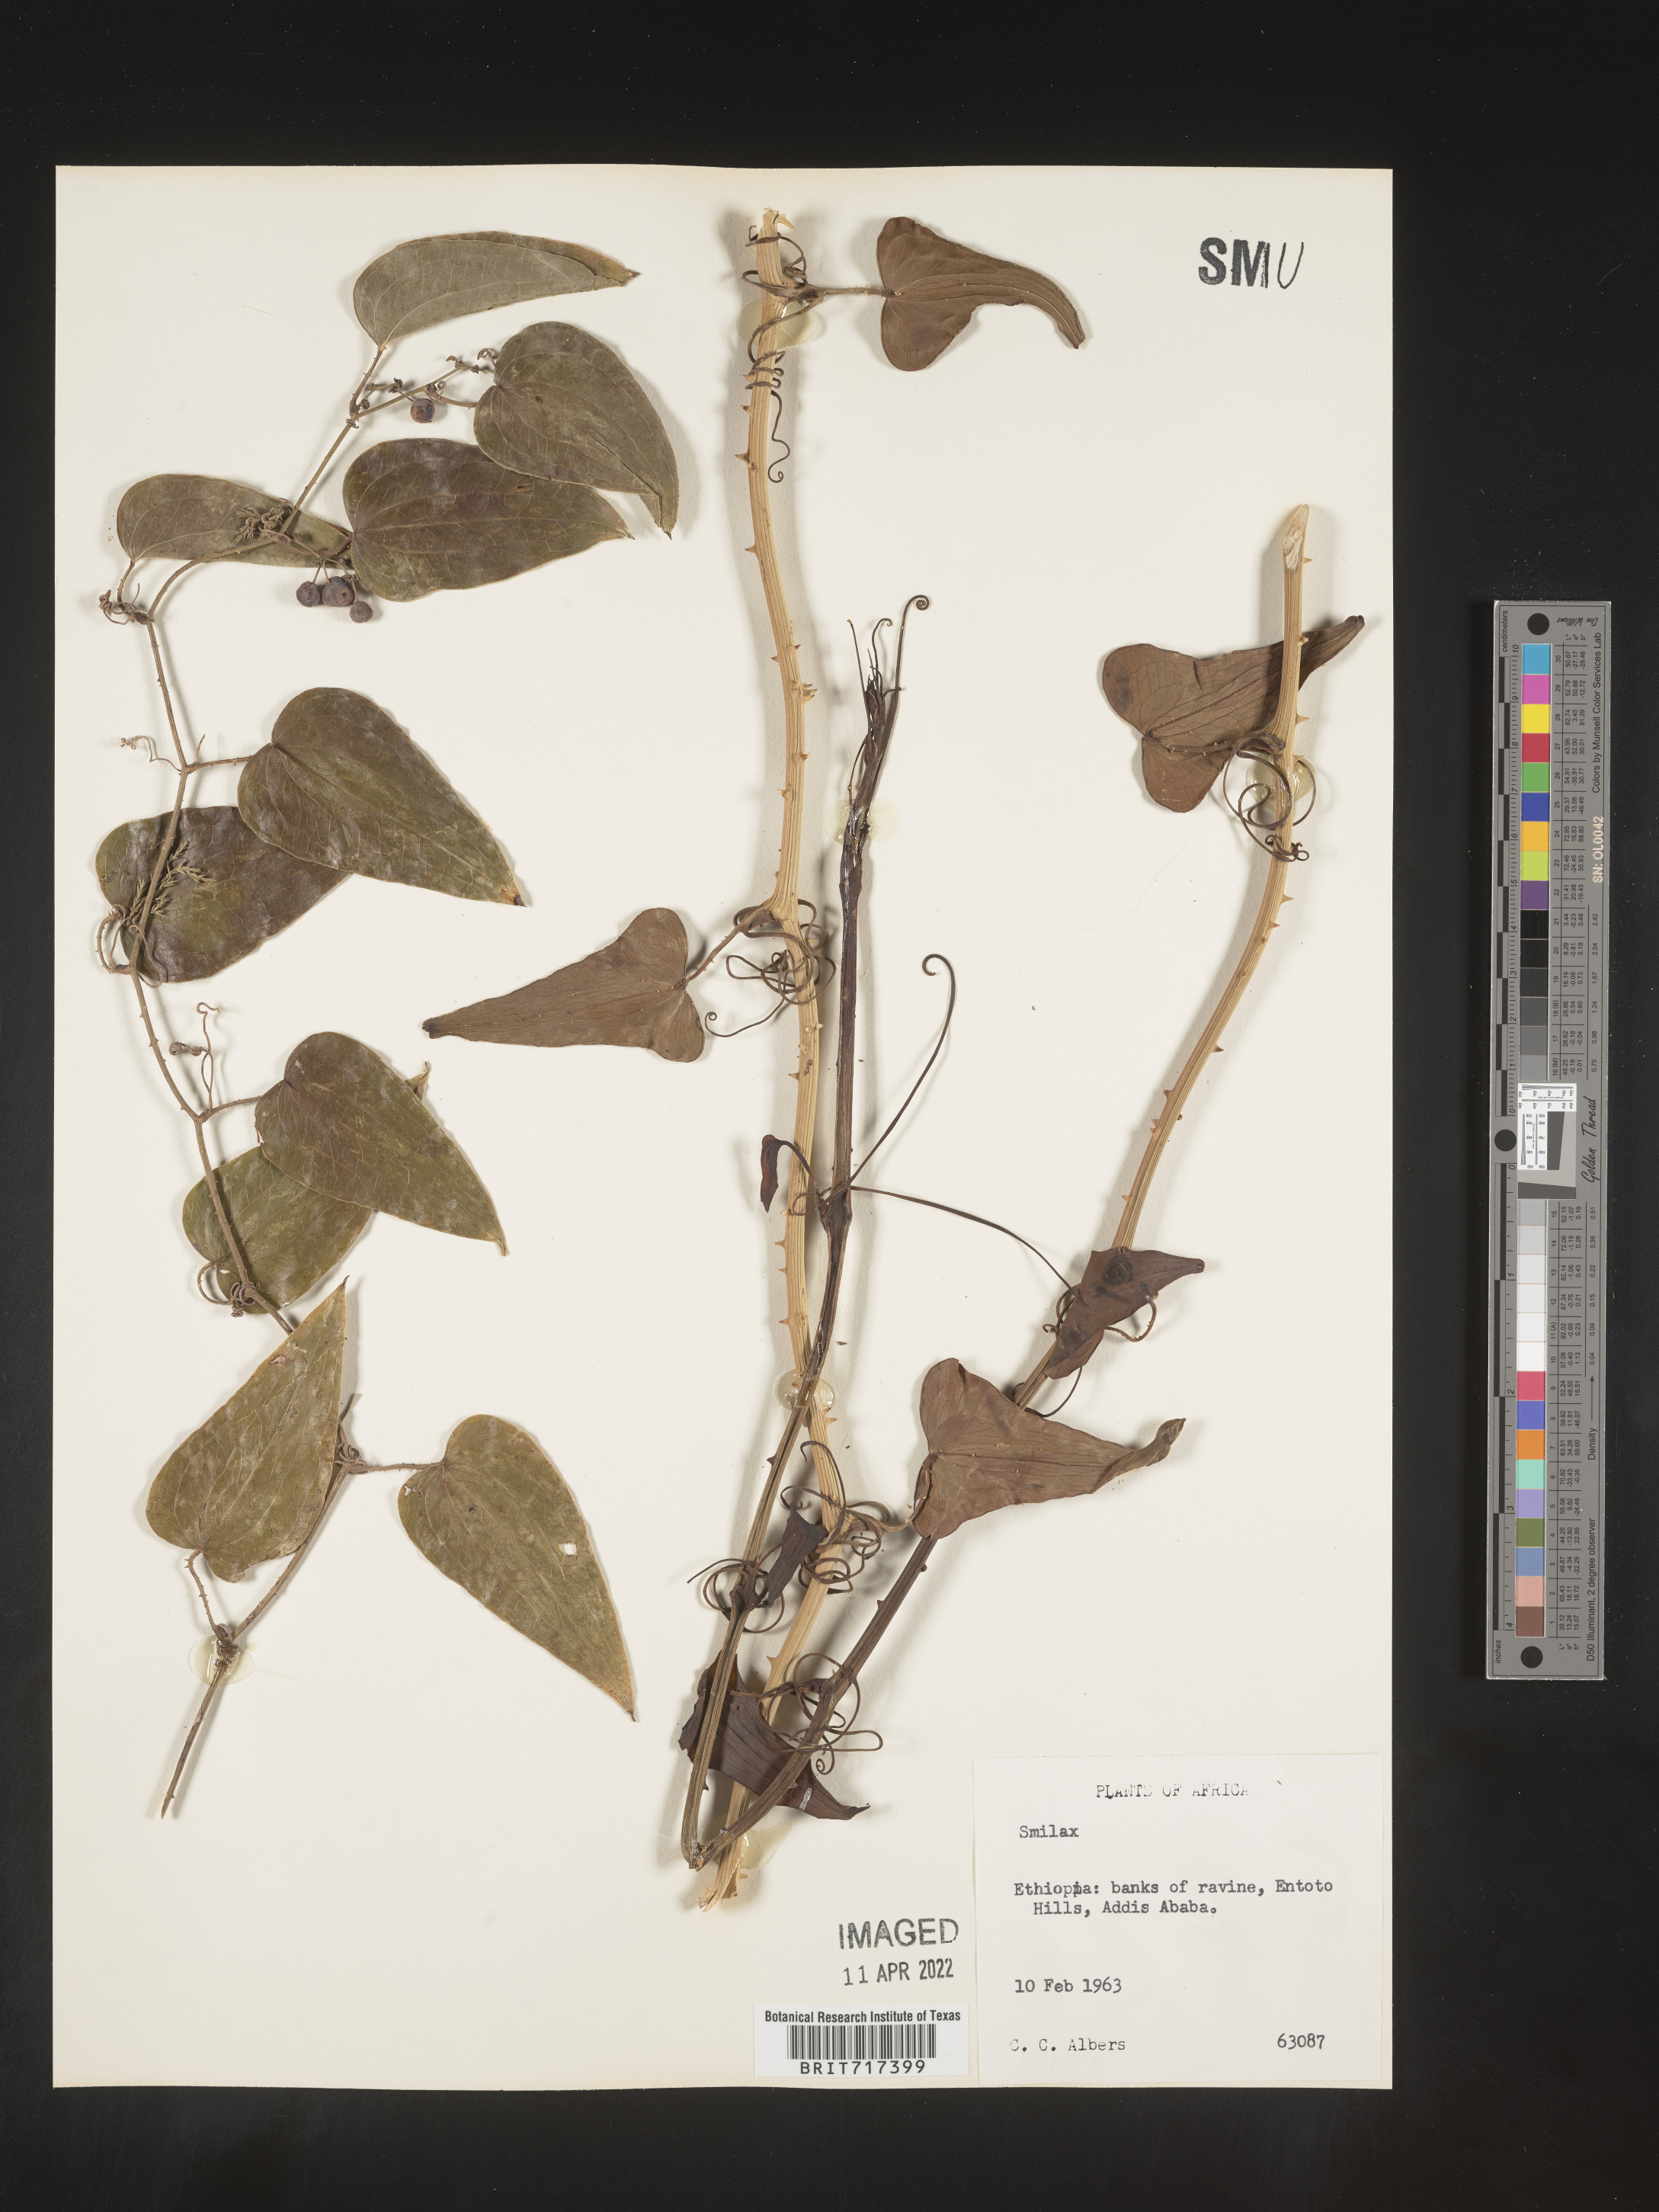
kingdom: Plantae
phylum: Tracheophyta
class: Liliopsida
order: Liliales
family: Smilacaceae
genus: Smilax
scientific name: Smilax
